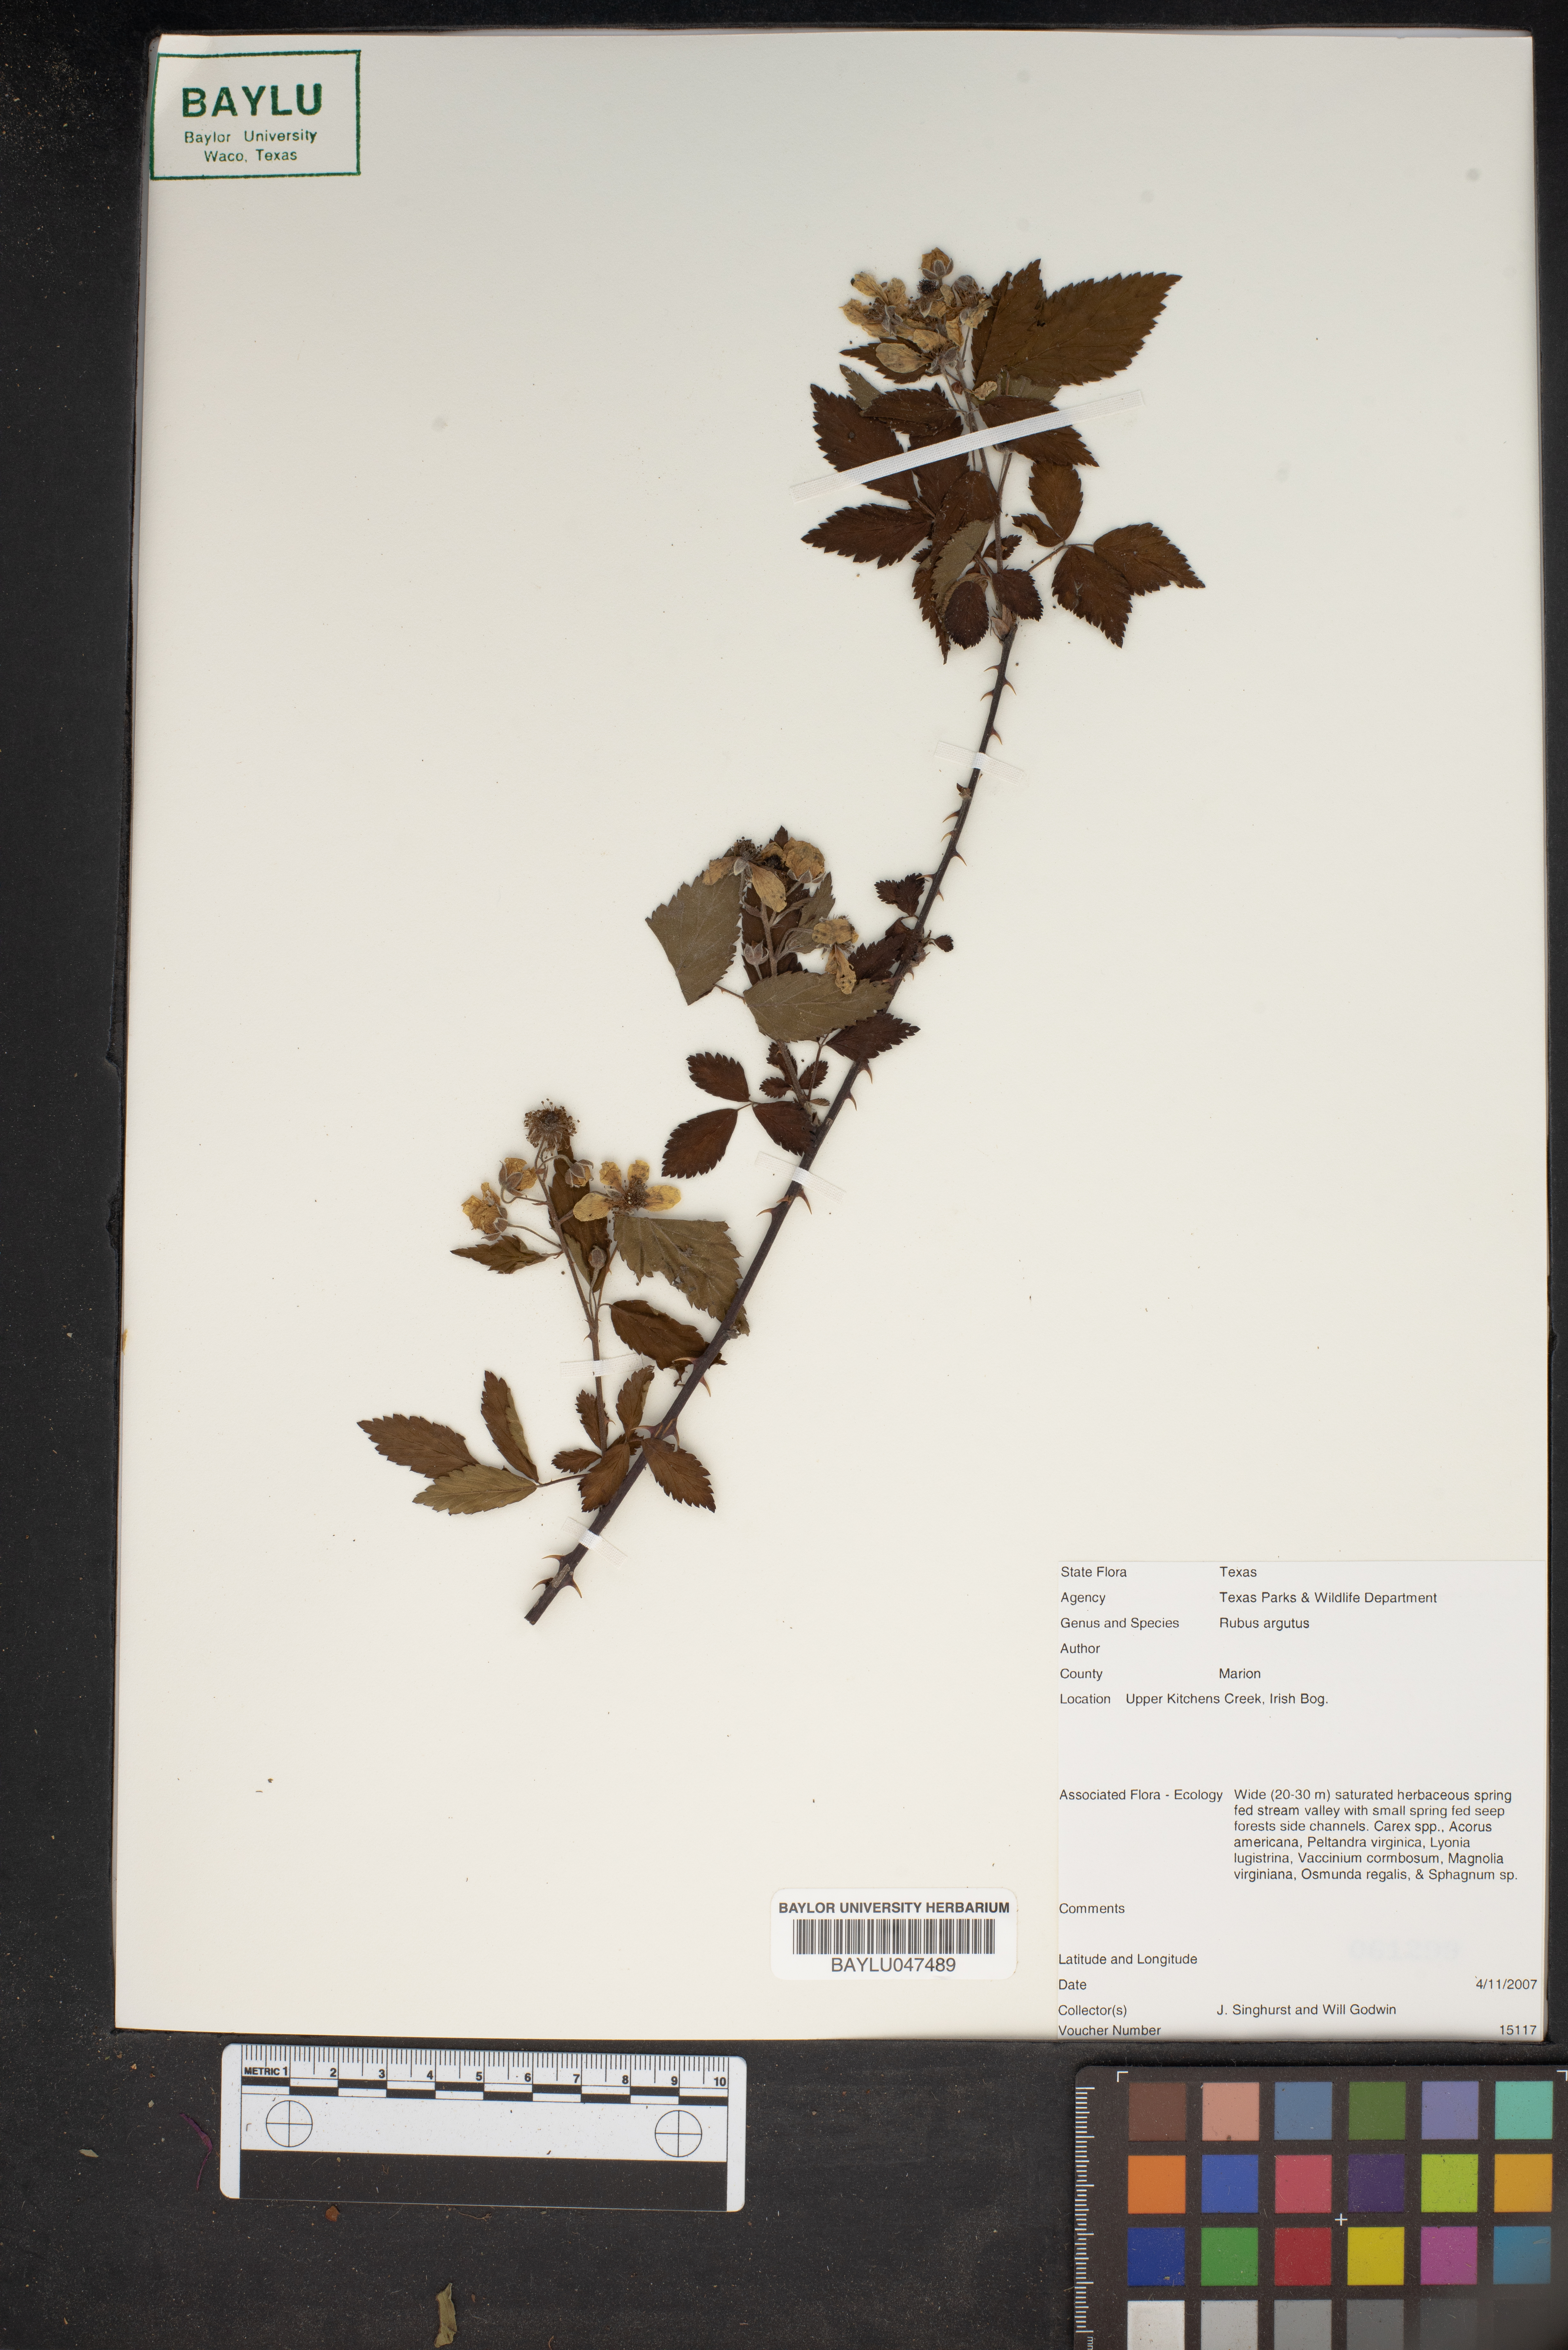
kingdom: Plantae
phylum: Tracheophyta
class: Magnoliopsida
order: Rosales
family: Rosaceae
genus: Rubus
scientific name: Rubus argutus
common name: Sawtooth blackberry
